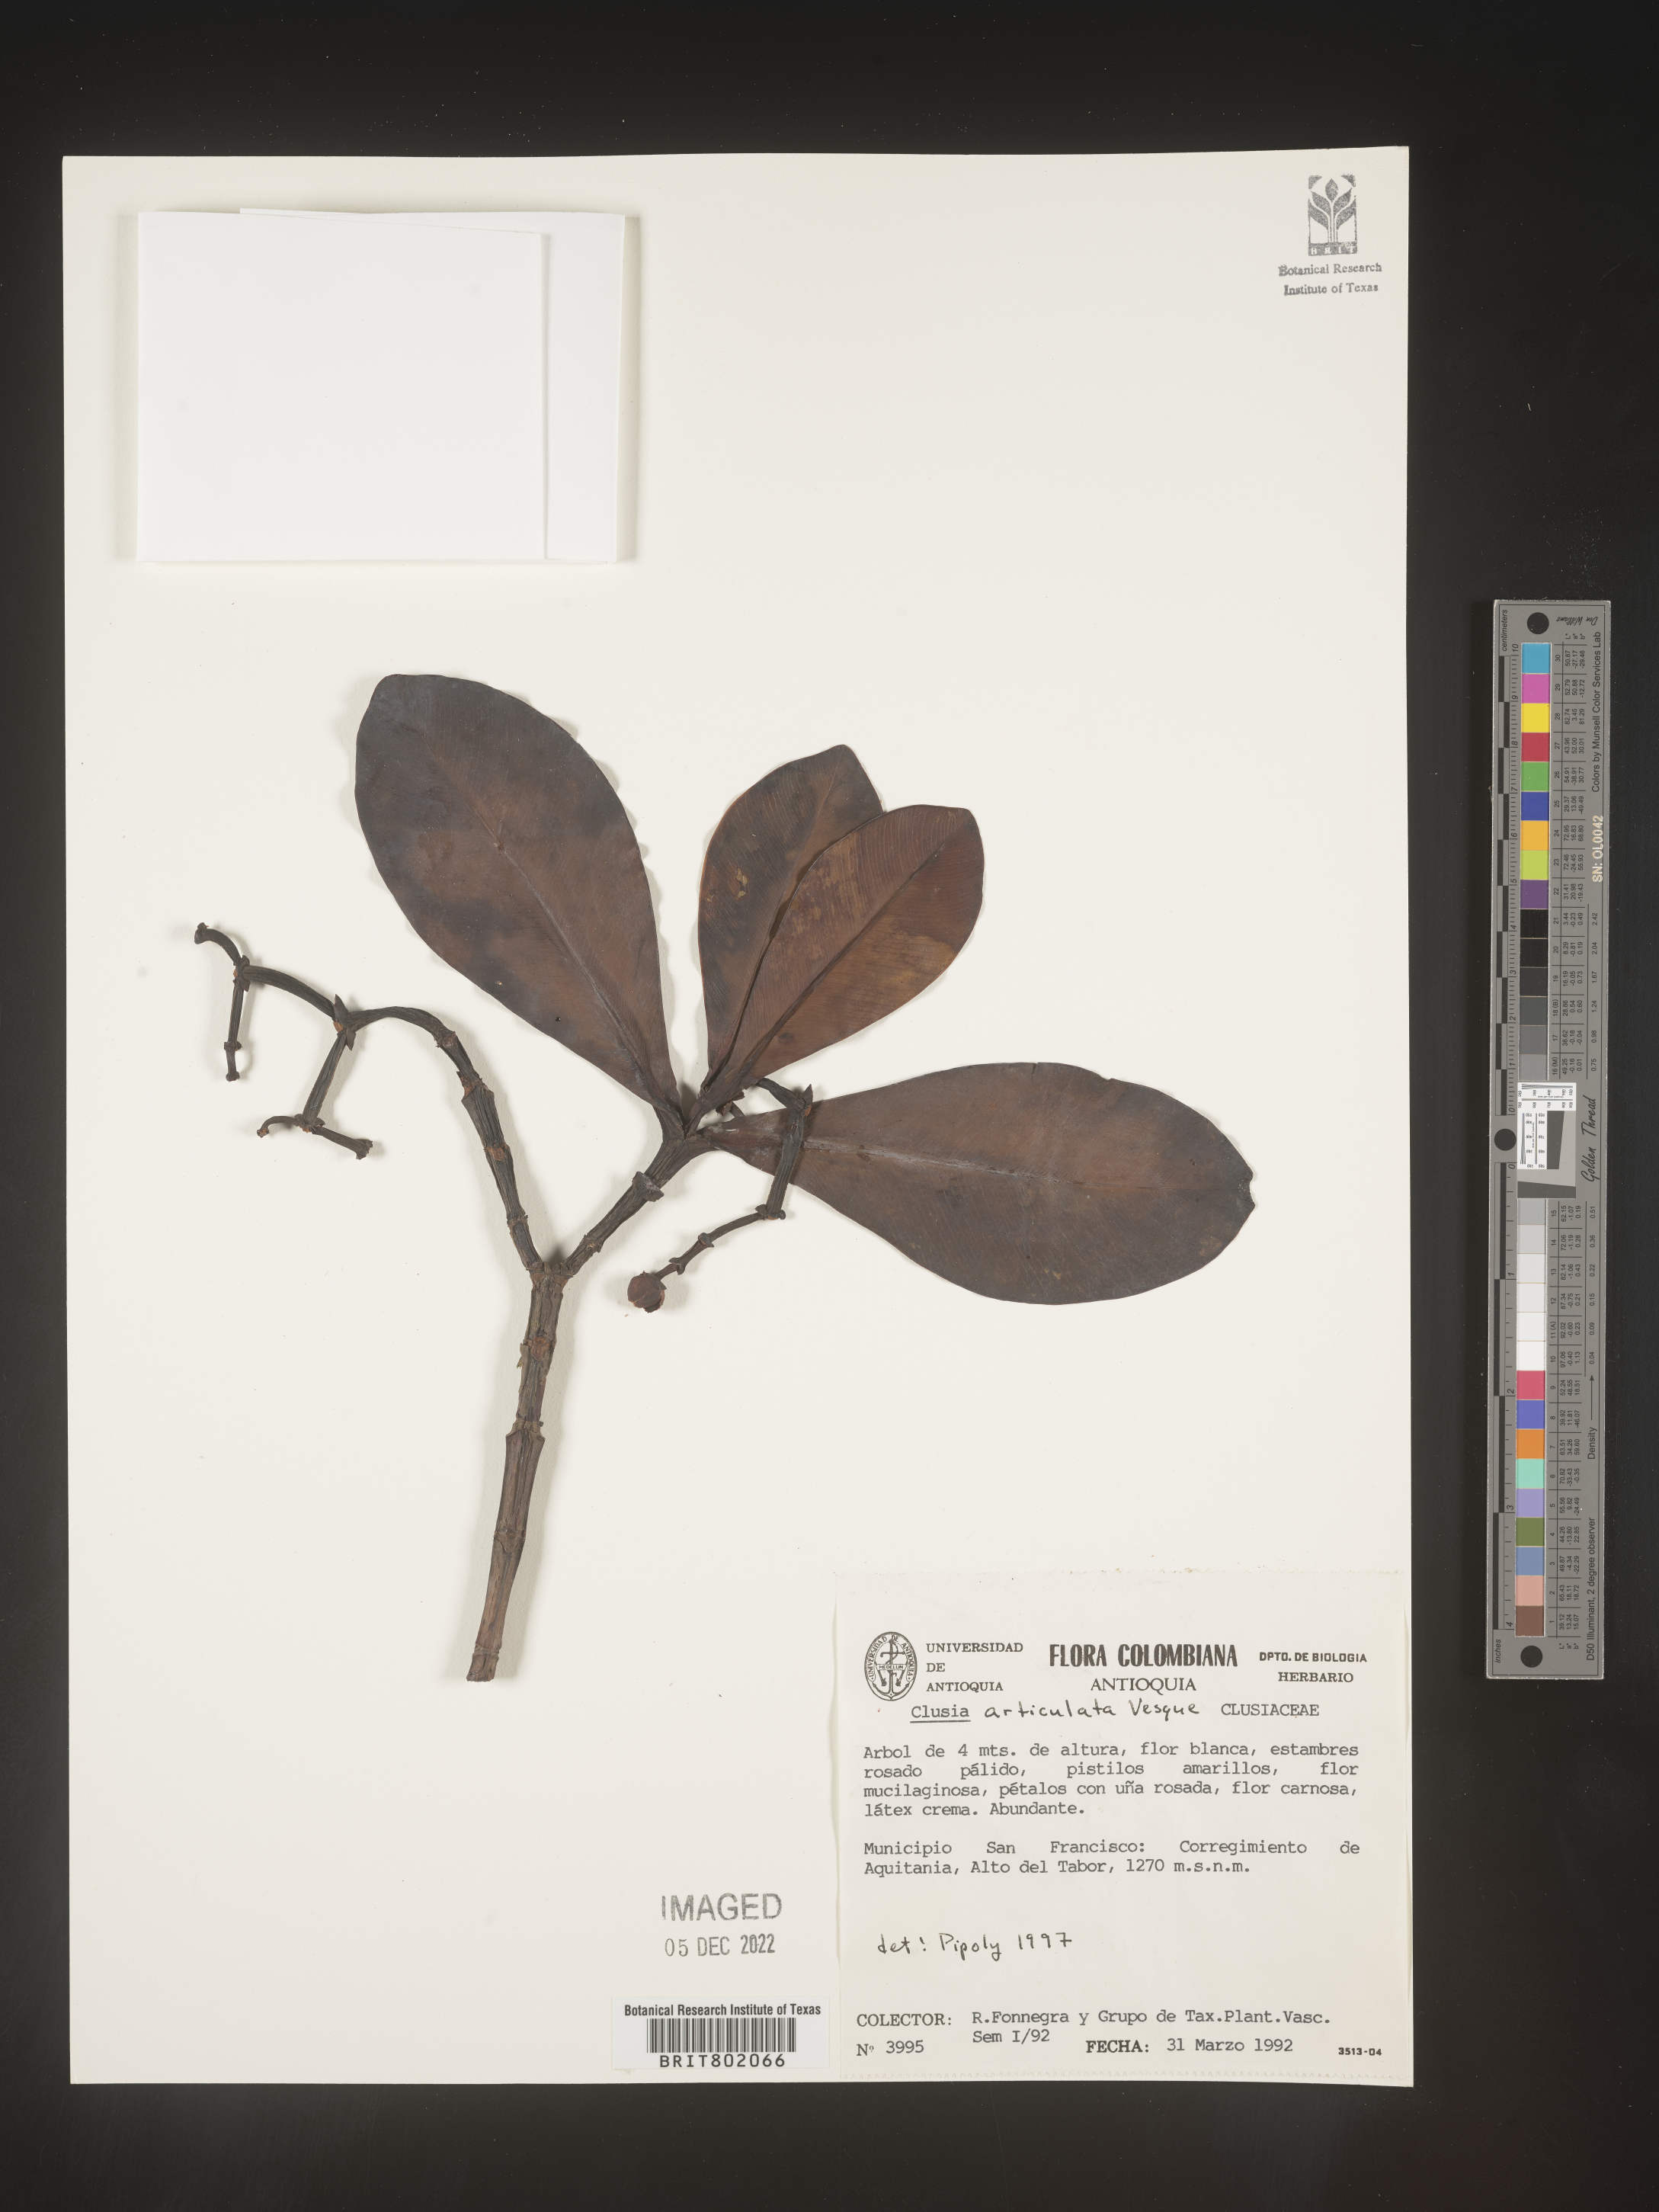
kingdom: Plantae
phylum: Tracheophyta
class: Magnoliopsida
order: Malpighiales
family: Clusiaceae
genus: Clusia
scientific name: Clusia
